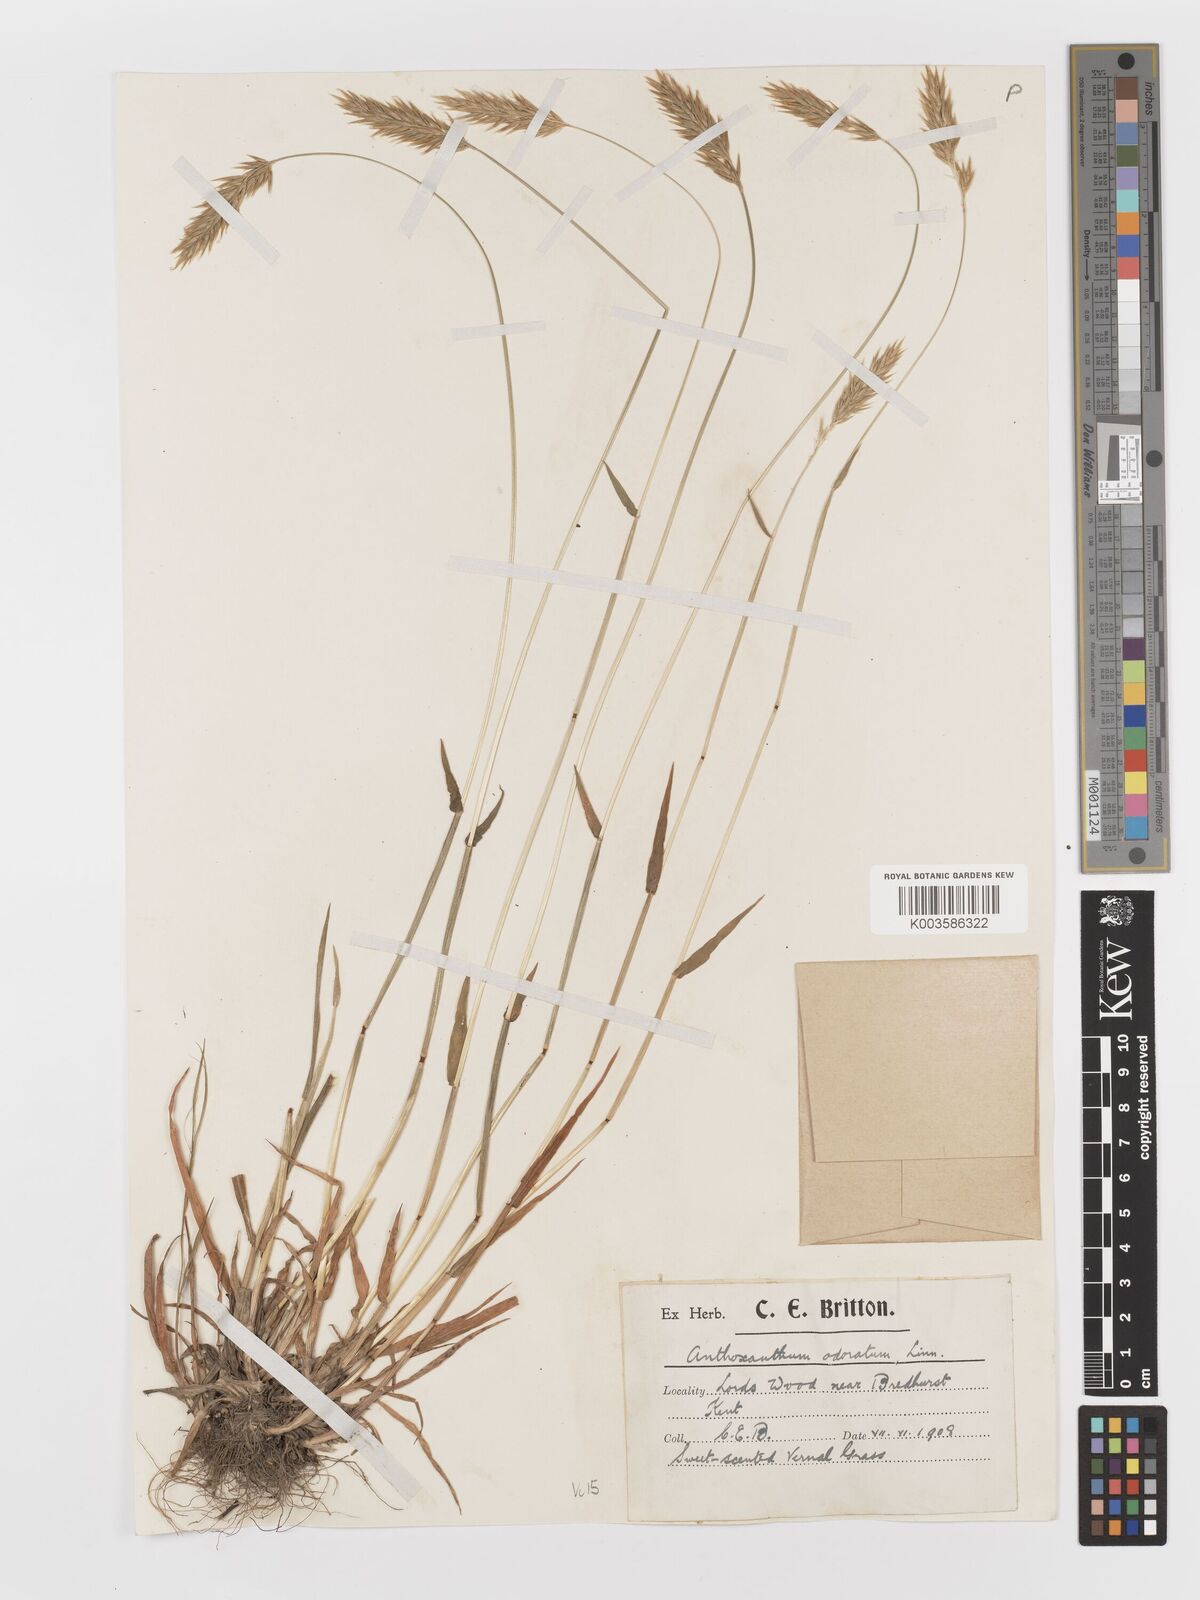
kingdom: Plantae
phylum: Tracheophyta
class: Liliopsida
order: Poales
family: Poaceae
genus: Anthoxanthum
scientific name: Anthoxanthum odoratum
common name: Sweet vernalgrass
